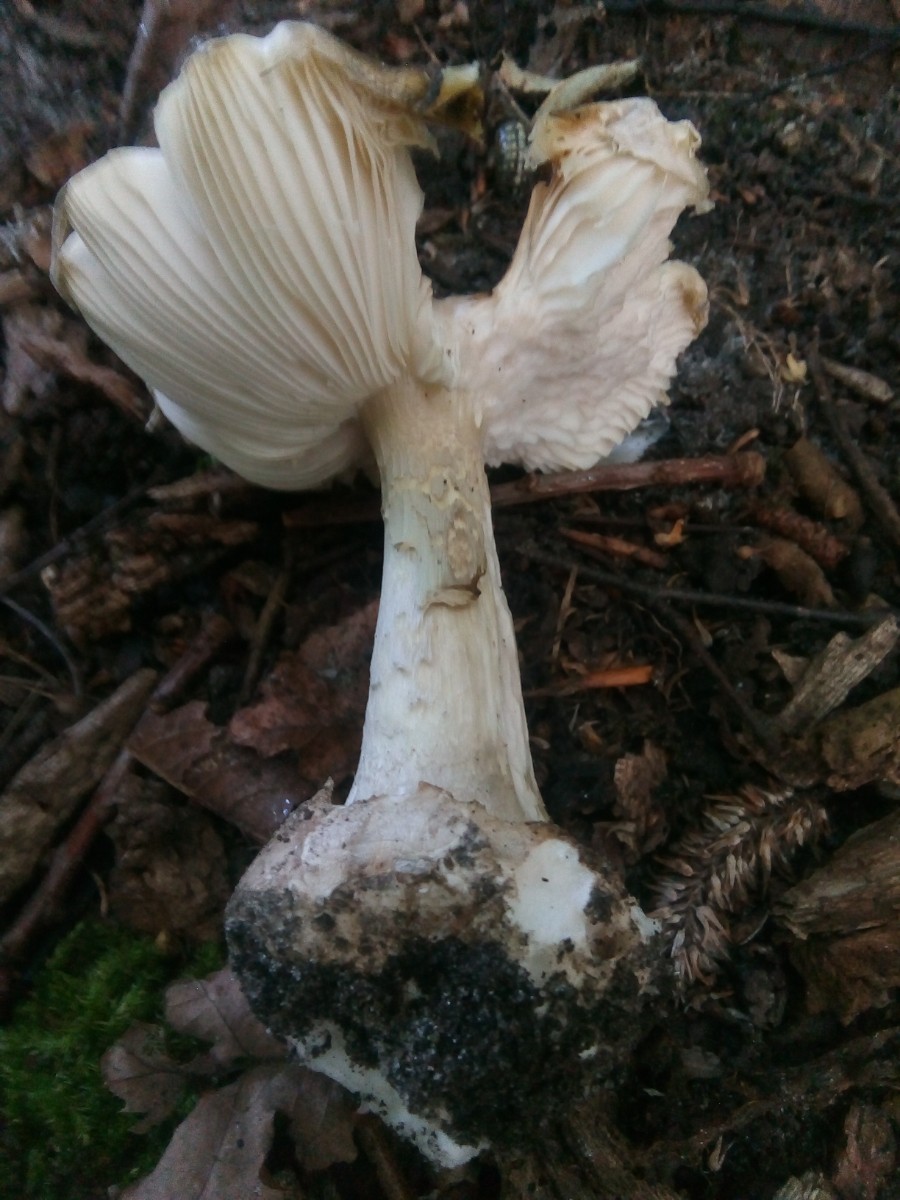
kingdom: Fungi
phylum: Basidiomycota
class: Agaricomycetes
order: Agaricales
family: Amanitaceae
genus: Amanita
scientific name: Amanita phalloides
